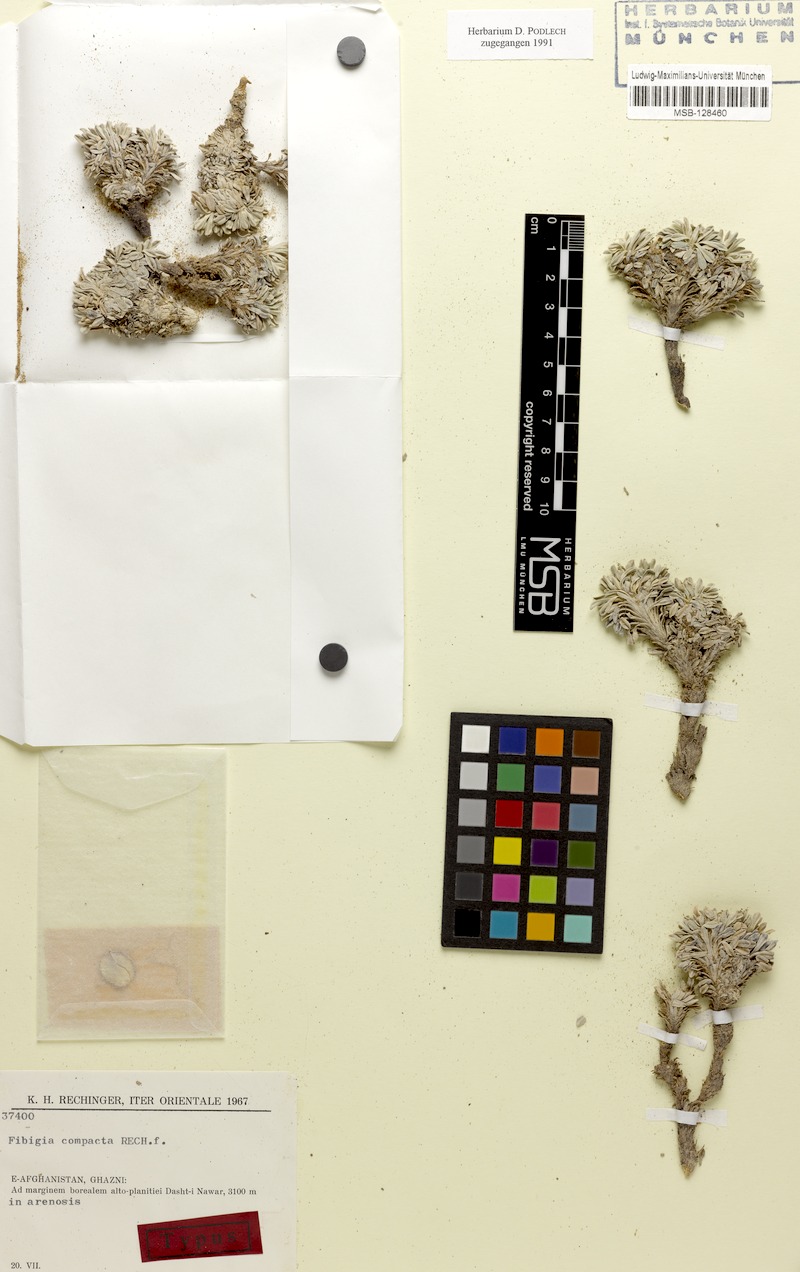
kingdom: Plantae
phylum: Tracheophyta
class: Magnoliopsida
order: Brassicales
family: Brassicaceae
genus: Irania
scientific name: Irania compacta
